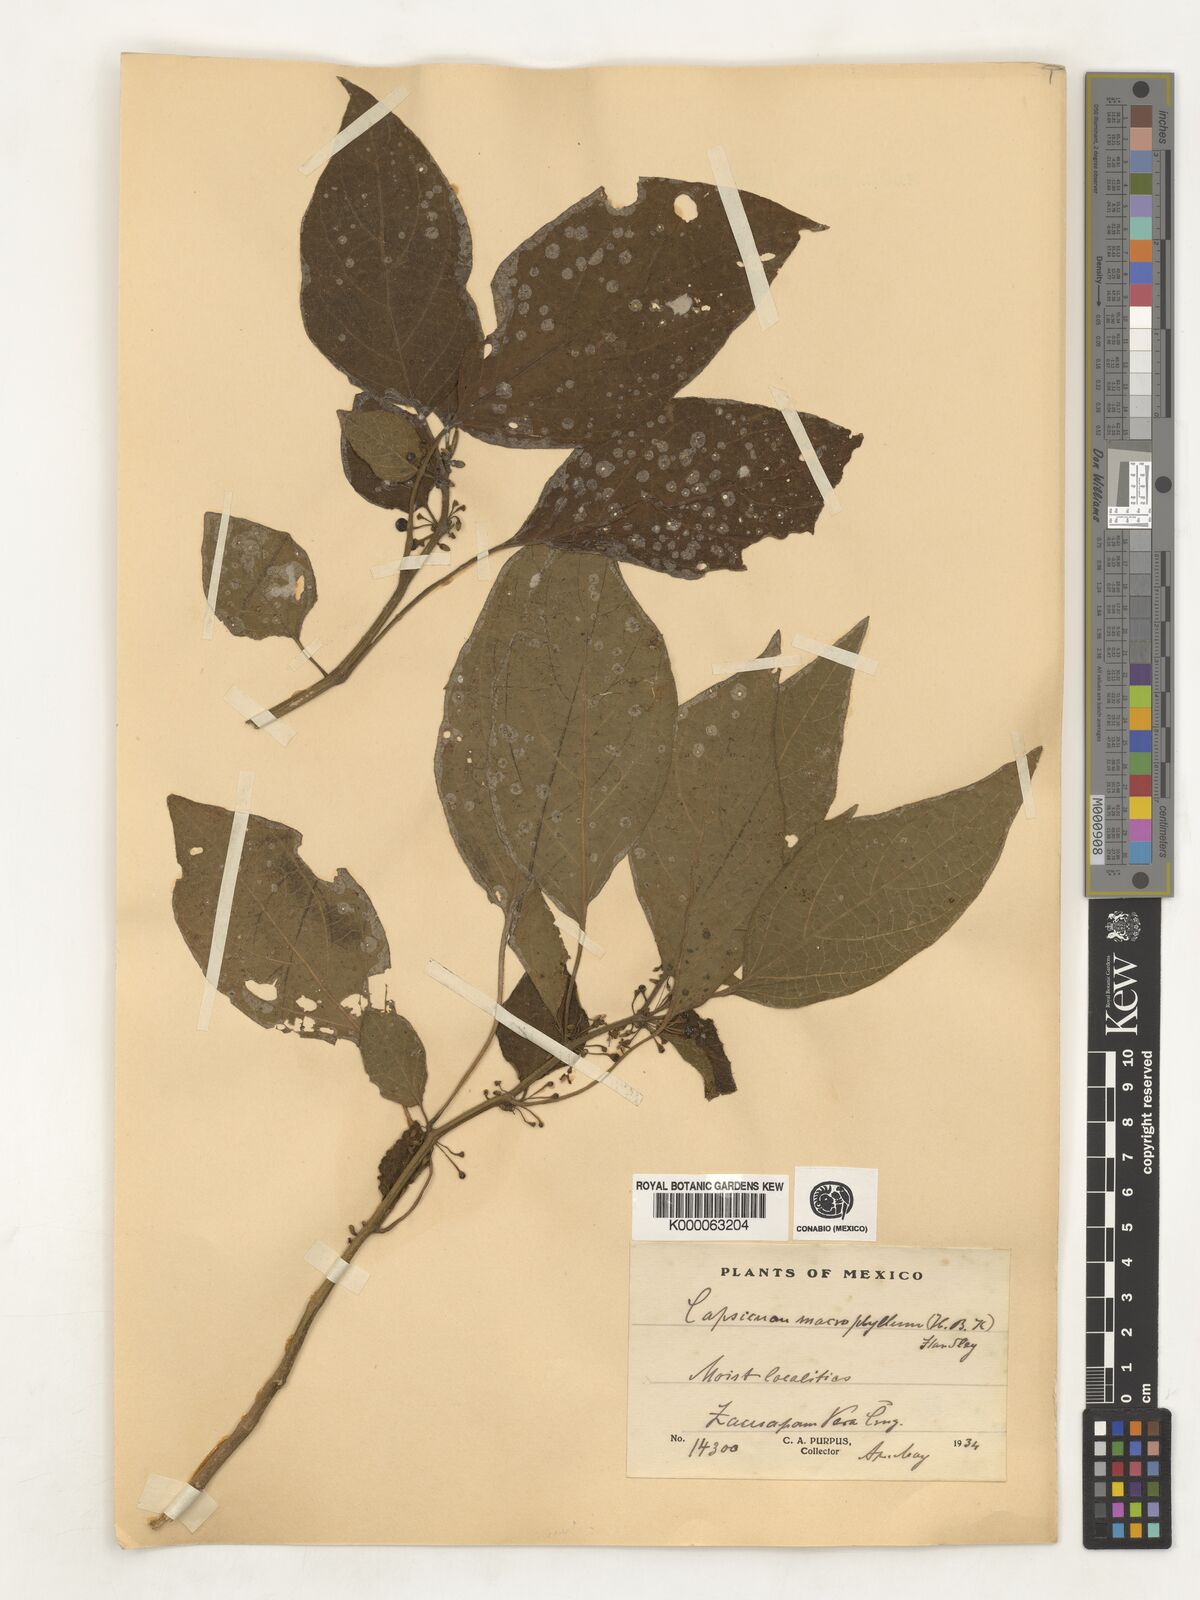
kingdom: Plantae
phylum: Tracheophyta
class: Magnoliopsida
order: Solanales
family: Solanaceae
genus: Witheringia
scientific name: Witheringia
